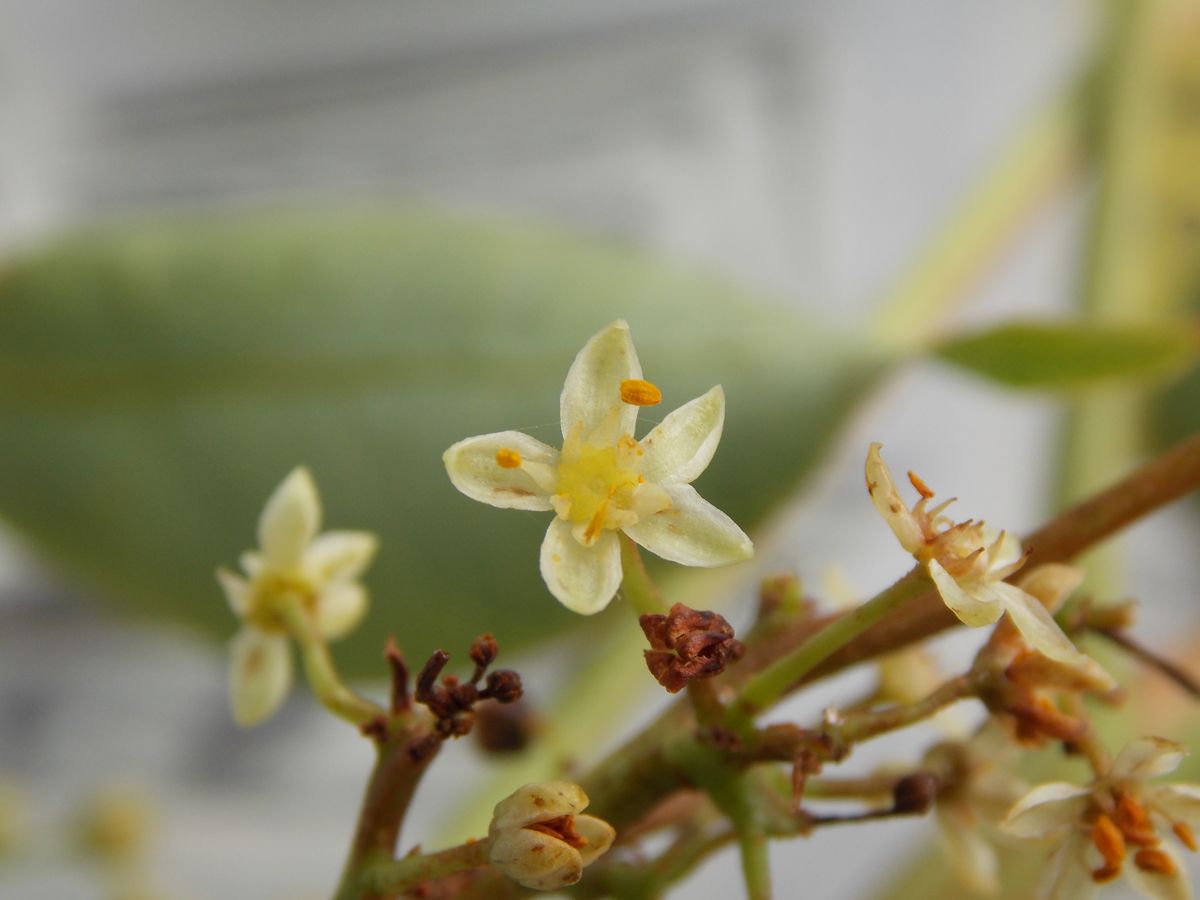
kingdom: Plantae
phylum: Tracheophyta
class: Magnoliopsida
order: Sapindales
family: Burseraceae
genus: Bursera
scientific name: Bursera simaruba
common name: Turpentine tree
